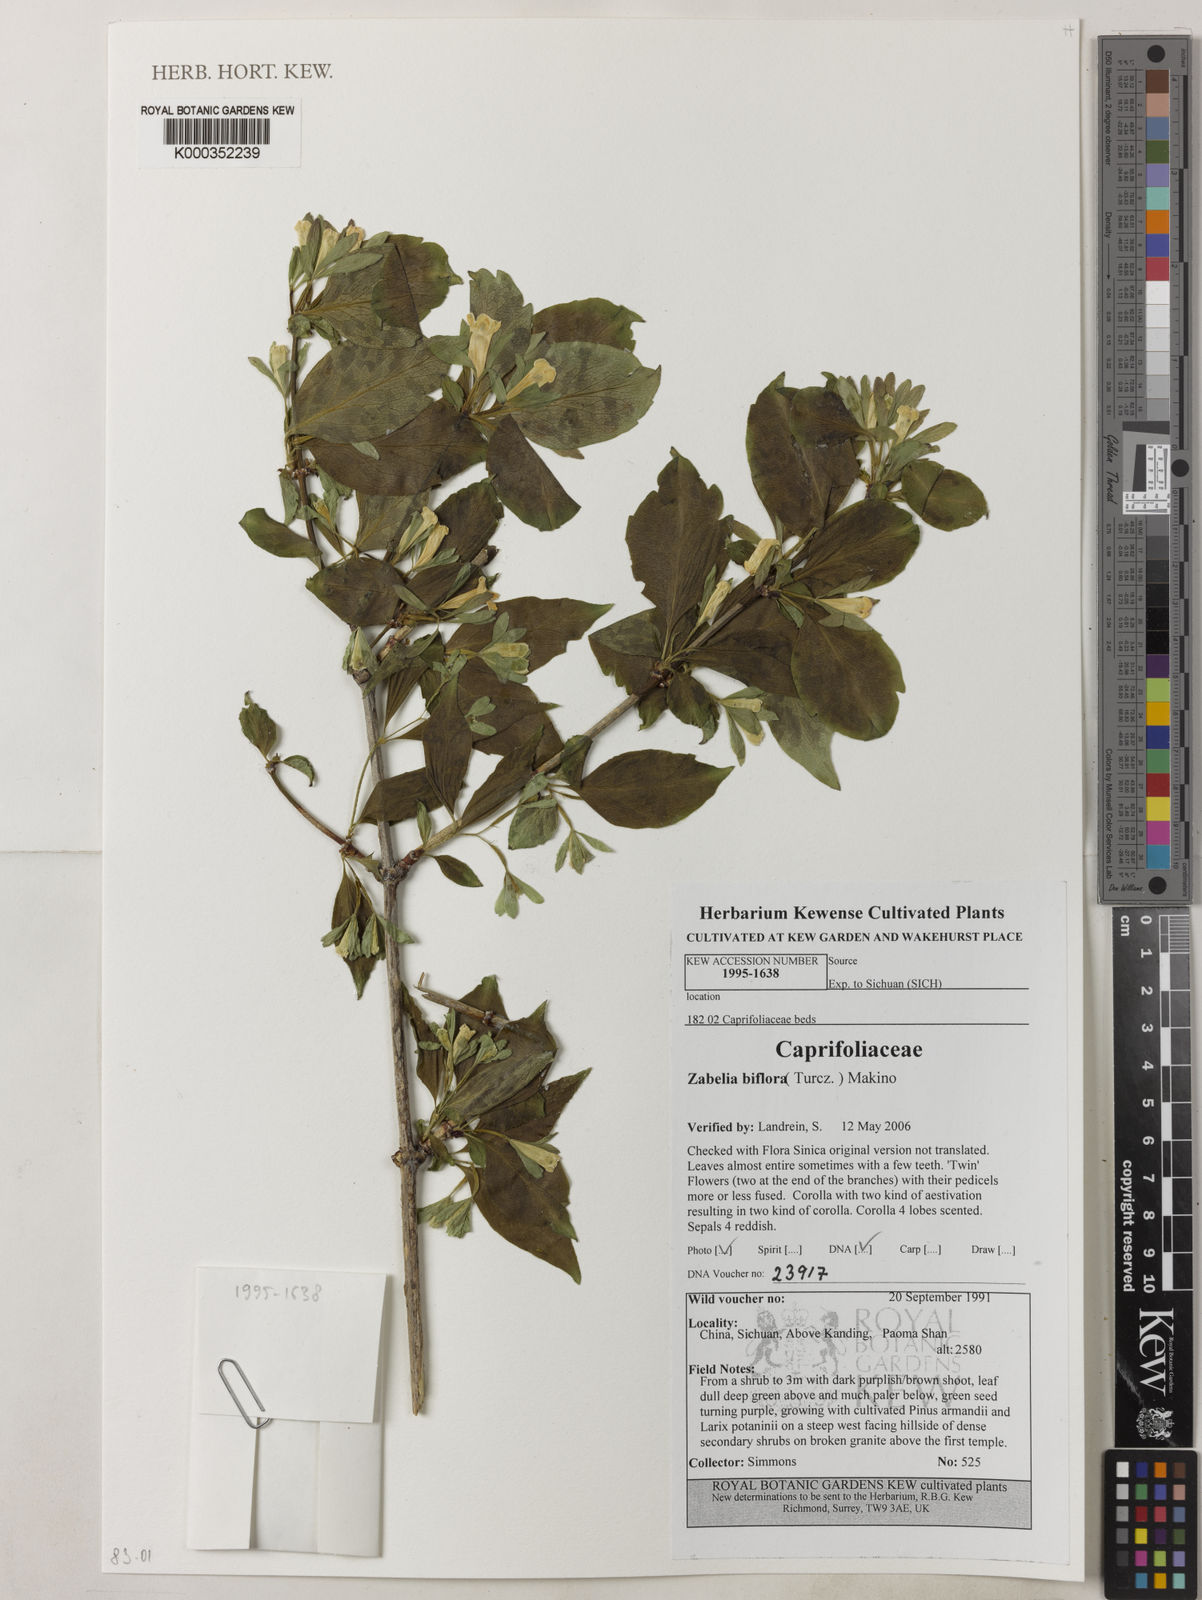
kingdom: Plantae
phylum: Tracheophyta
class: Magnoliopsida
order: Dipsacales
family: Caprifoliaceae
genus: Zabelia
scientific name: Zabelia biflora
